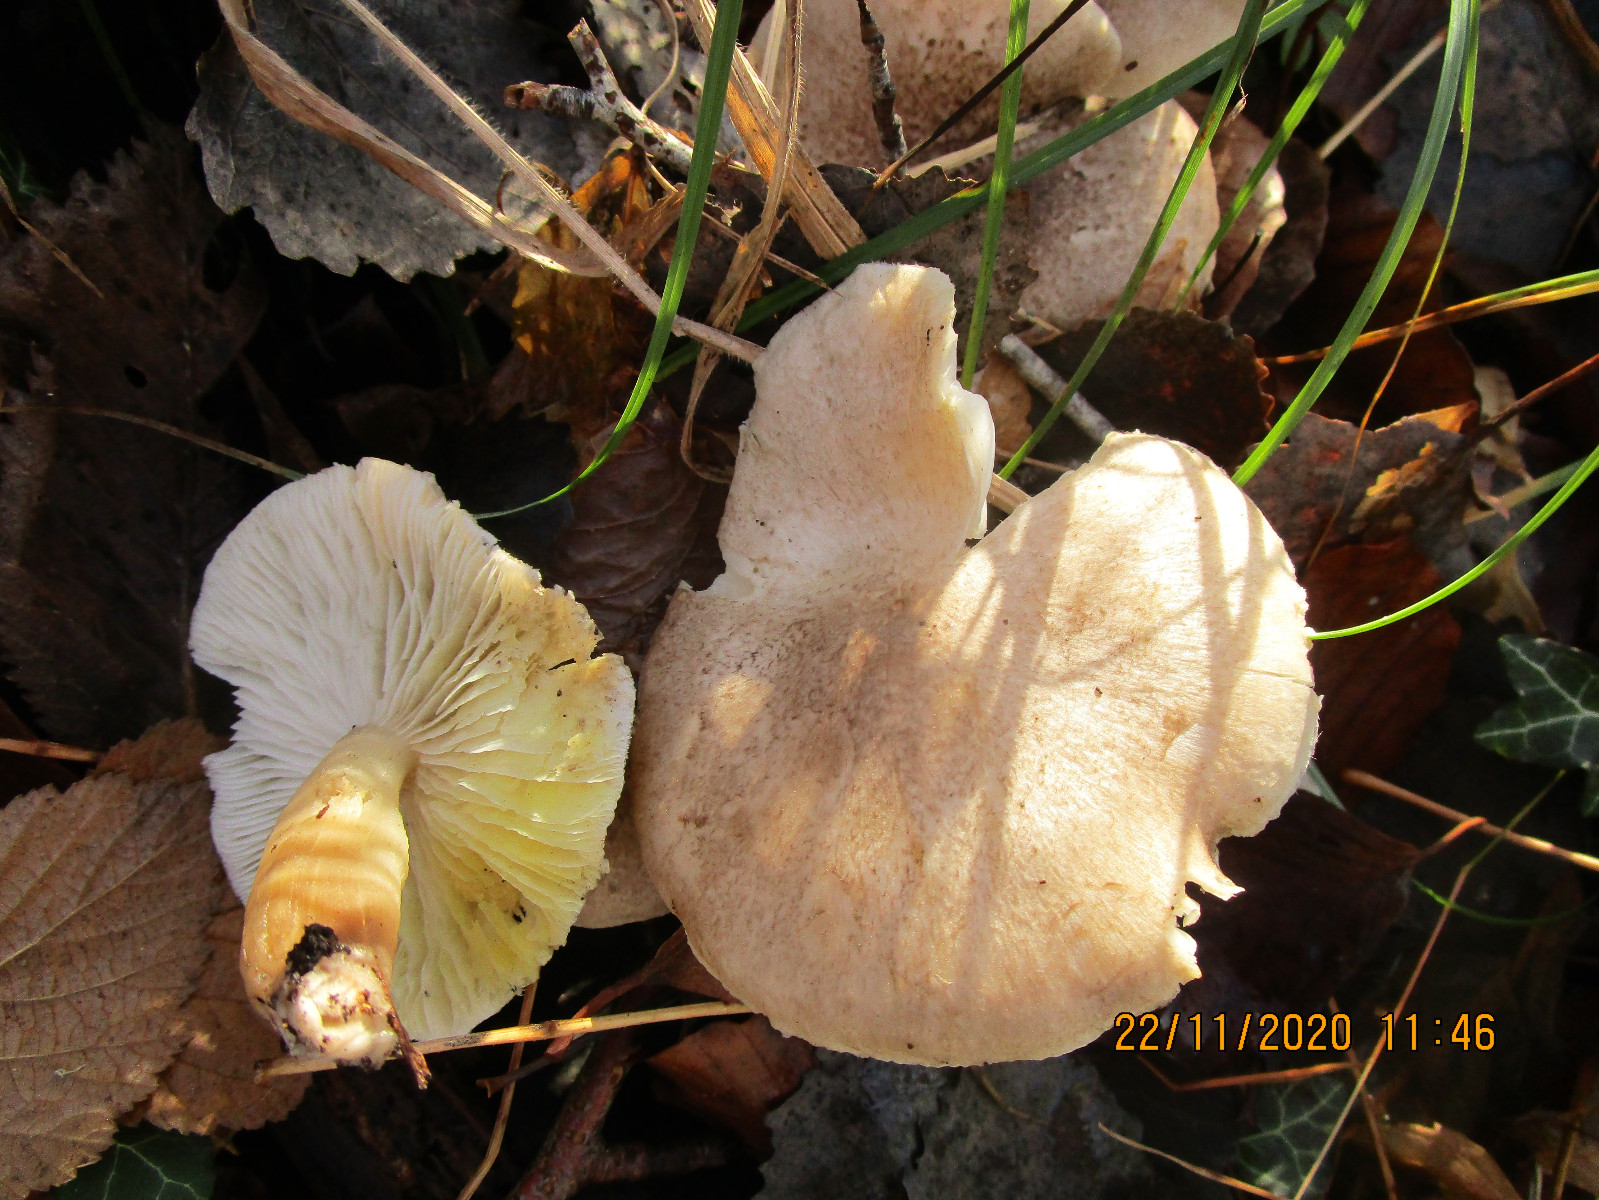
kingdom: Fungi
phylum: Basidiomycota
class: Agaricomycetes
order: Agaricales
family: Tricholomataceae
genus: Tricholoma
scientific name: Tricholoma scalpturatum
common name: gulplettet ridderhat
